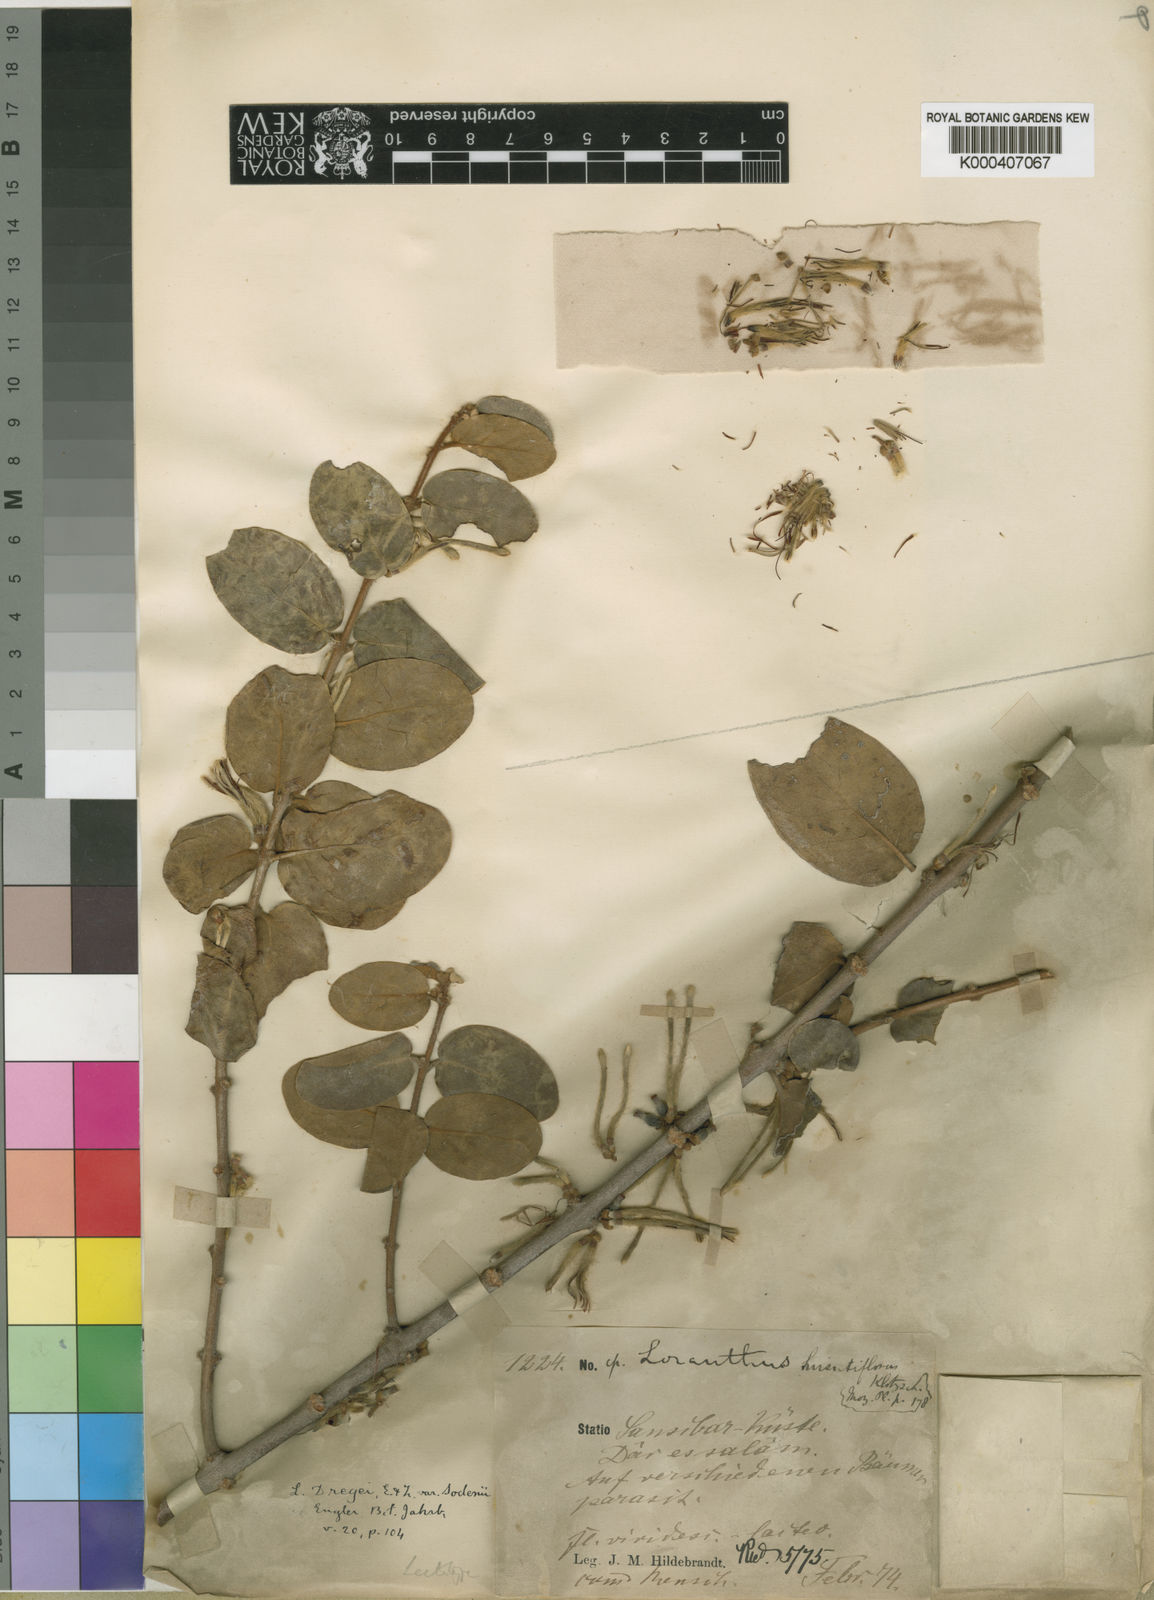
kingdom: Plantae
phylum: Tracheophyta
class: Magnoliopsida
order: Santalales
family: Loranthaceae
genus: Erianthemum
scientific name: Erianthemum dregei
